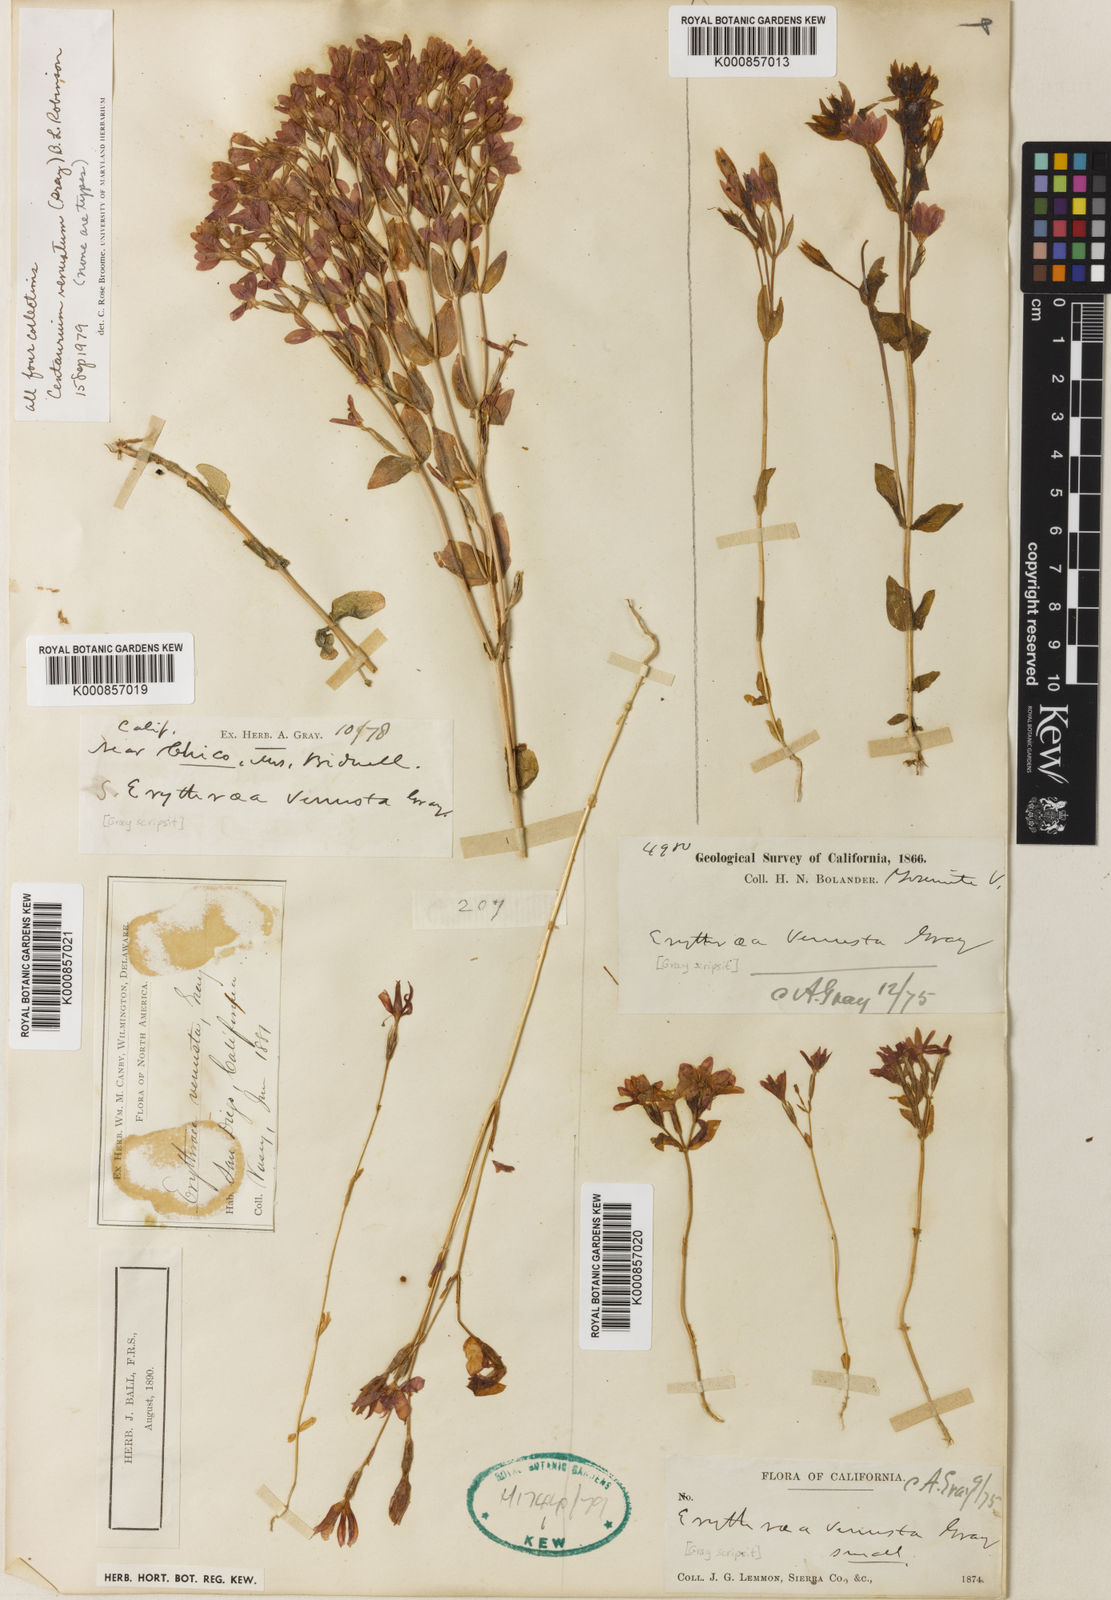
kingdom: Plantae
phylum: Tracheophyta
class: Magnoliopsida
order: Gentianales
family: Gentianaceae
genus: Zeltnera
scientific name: Zeltnera venusta
